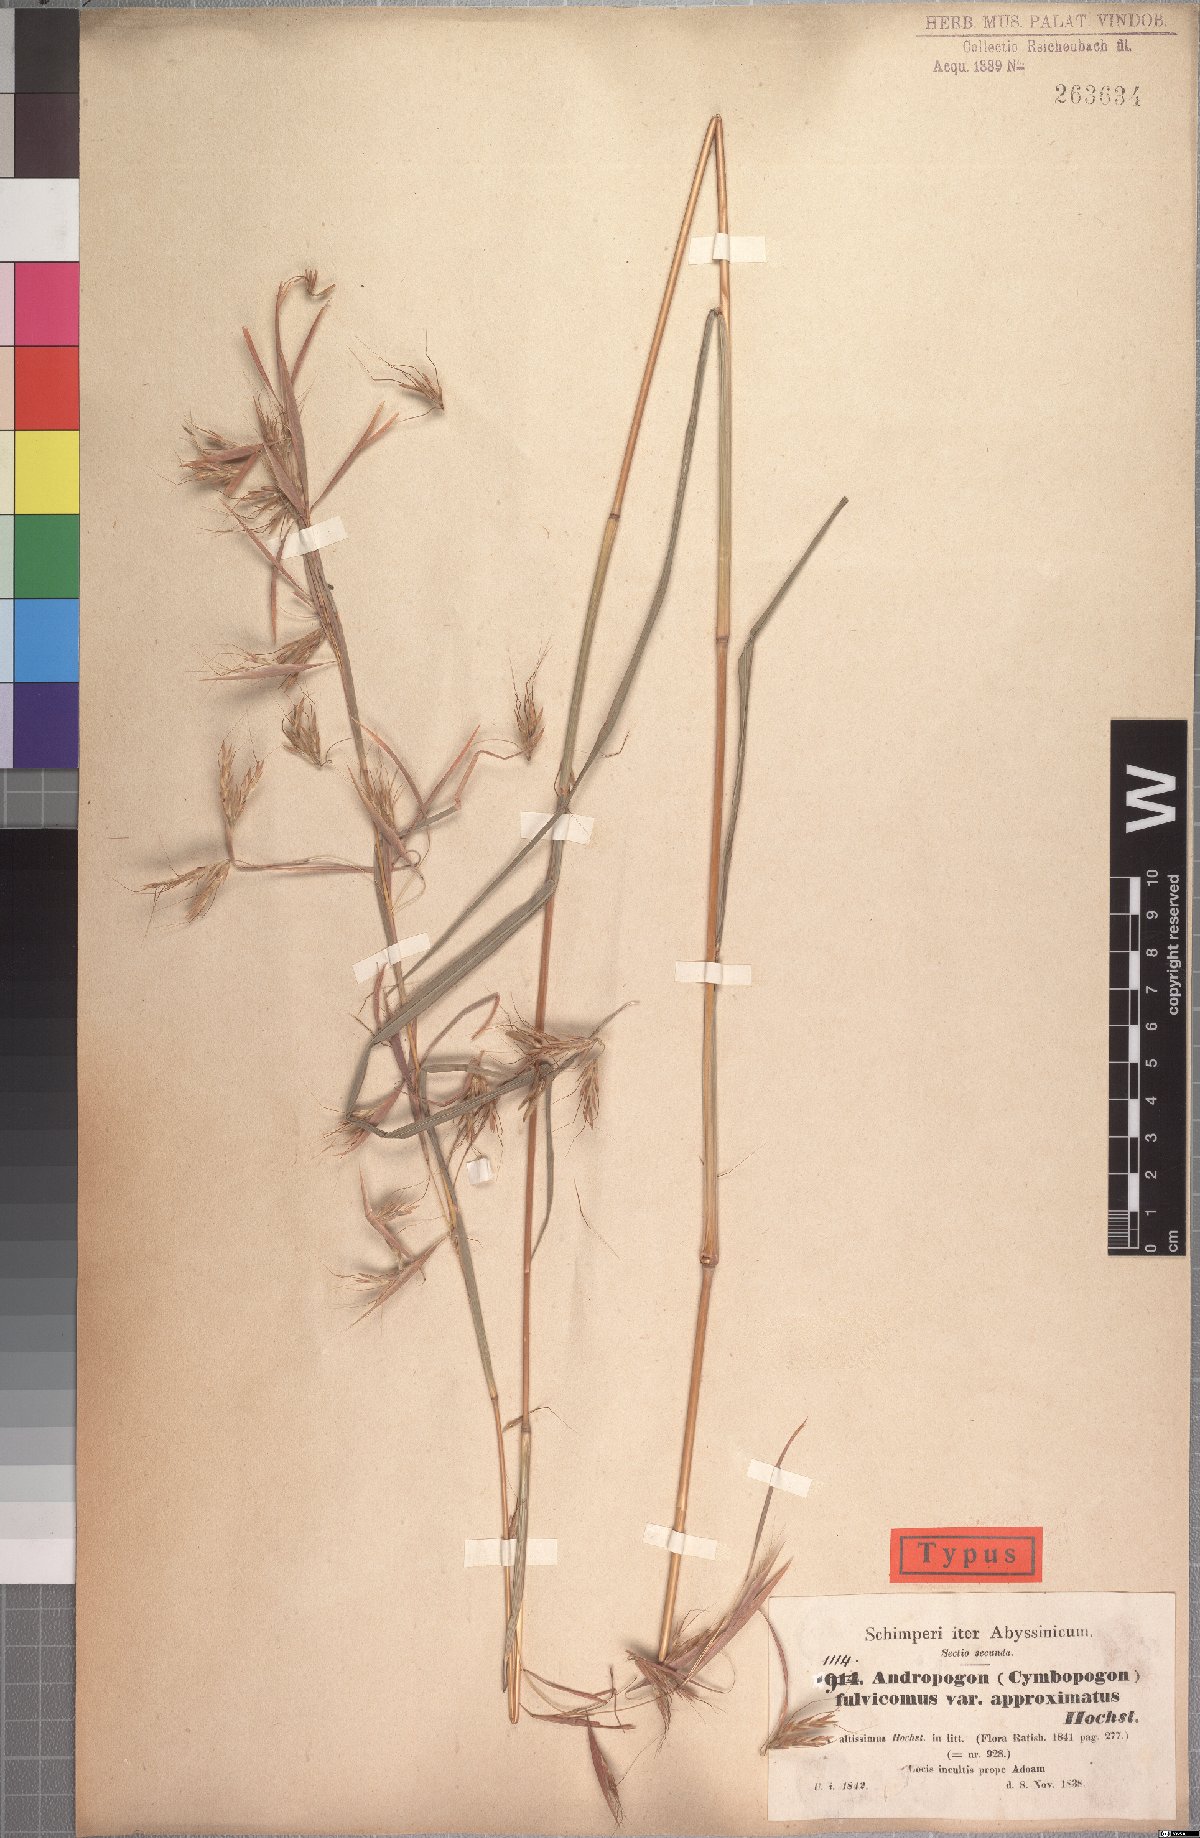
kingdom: Plantae
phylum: Tracheophyta
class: Liliopsida
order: Poales
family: Poaceae
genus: Hyparrhenia
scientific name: Hyparrhenia rufa
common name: Jaraguagrass
